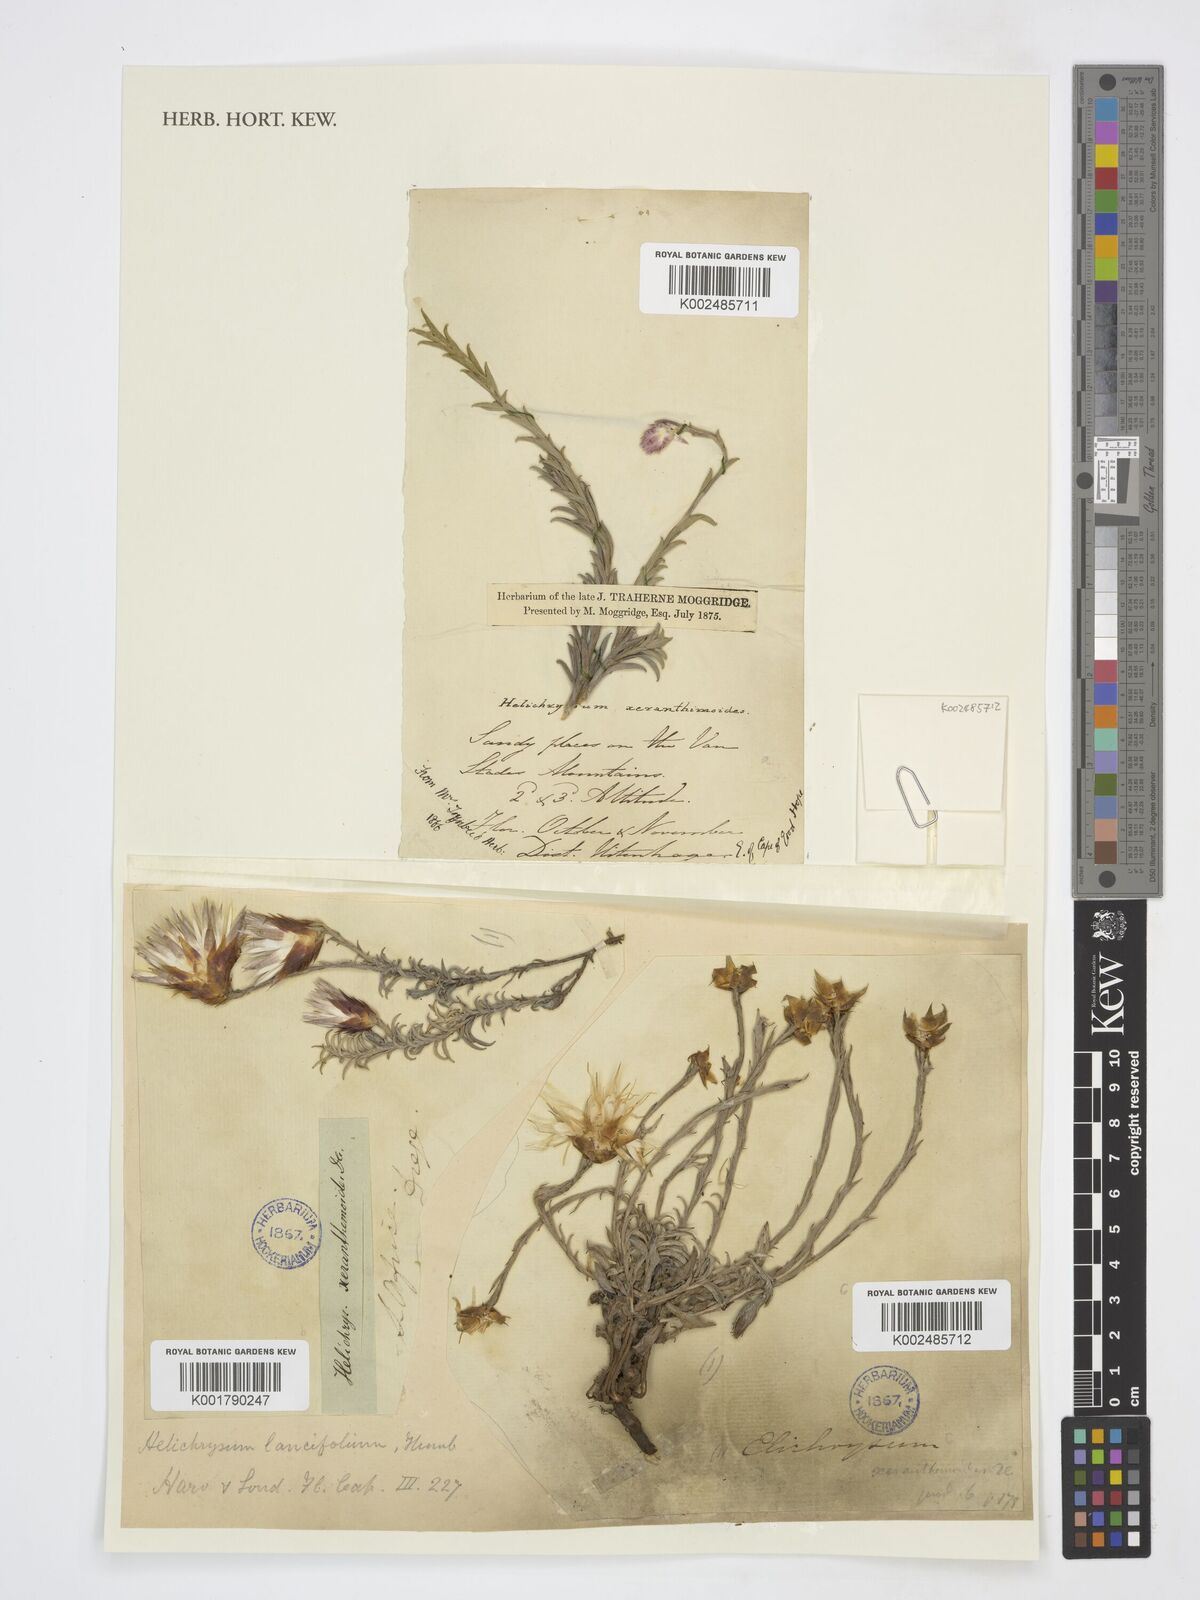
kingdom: Plantae
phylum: Tracheophyta
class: Magnoliopsida
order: Asterales
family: Asteraceae
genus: Helichrysum
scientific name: Helichrysum lancifolium
